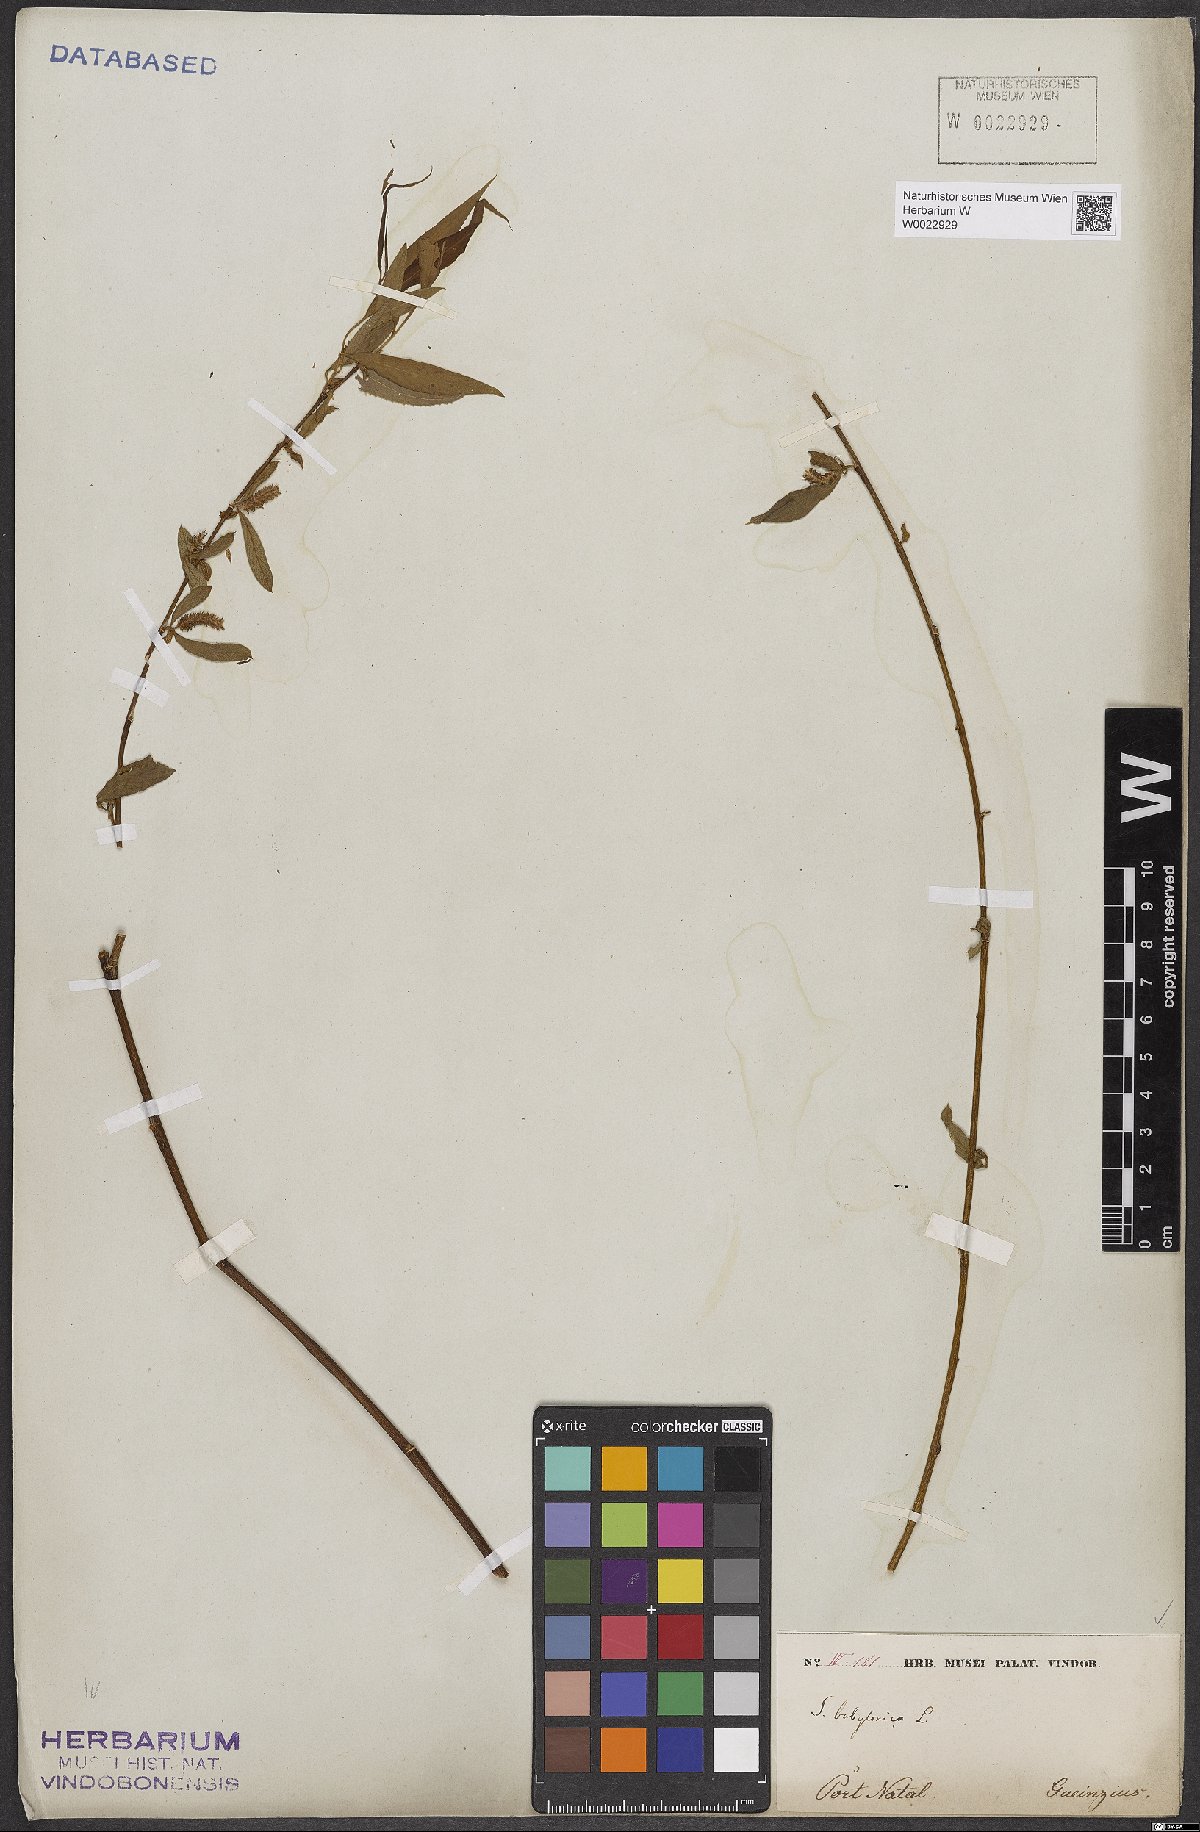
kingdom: Plantae
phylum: Tracheophyta
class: Magnoliopsida
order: Malpighiales
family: Salicaceae
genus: Salix
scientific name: Salix babylonica
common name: Weeping willow
